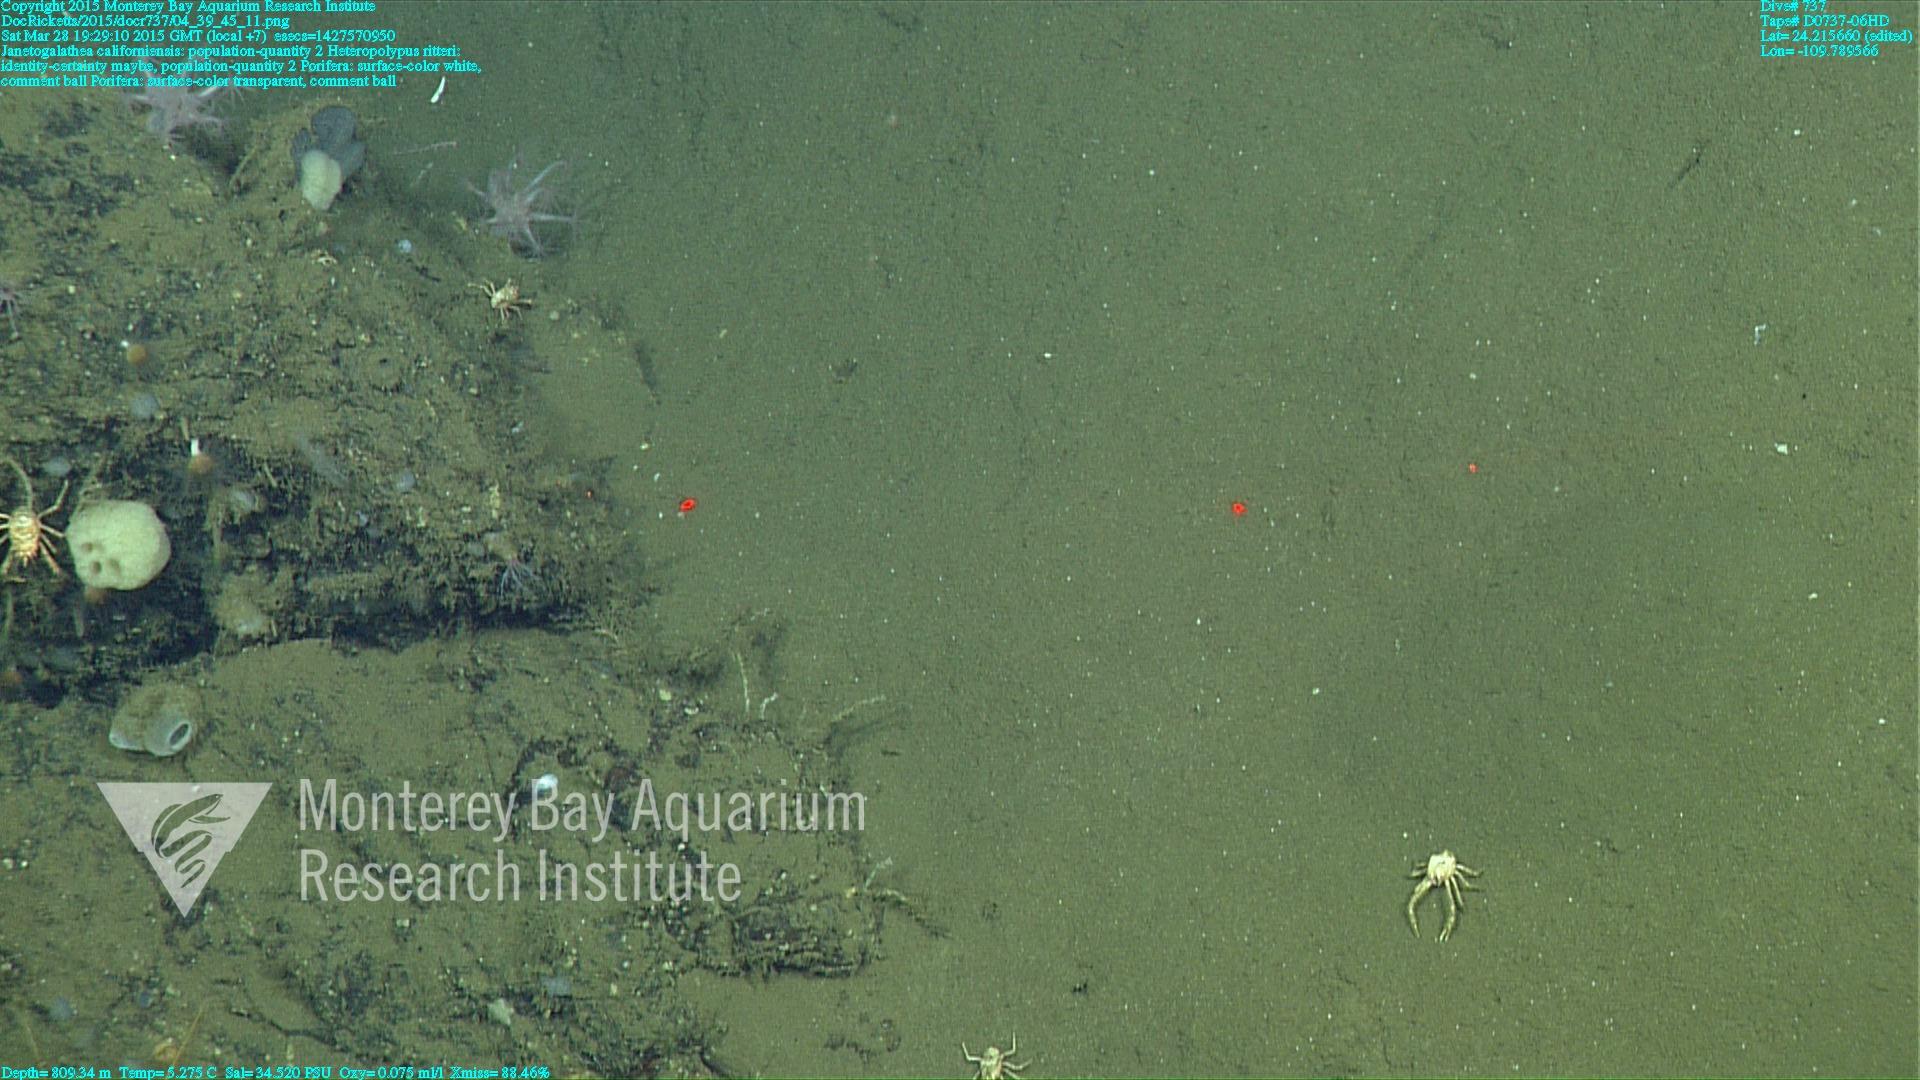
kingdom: Animalia
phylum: Cnidaria
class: Anthozoa
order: Scleralcyonacea
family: Coralliidae
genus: Heteropolypus
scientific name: Heteropolypus ritteri
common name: Ritter's soft coral
